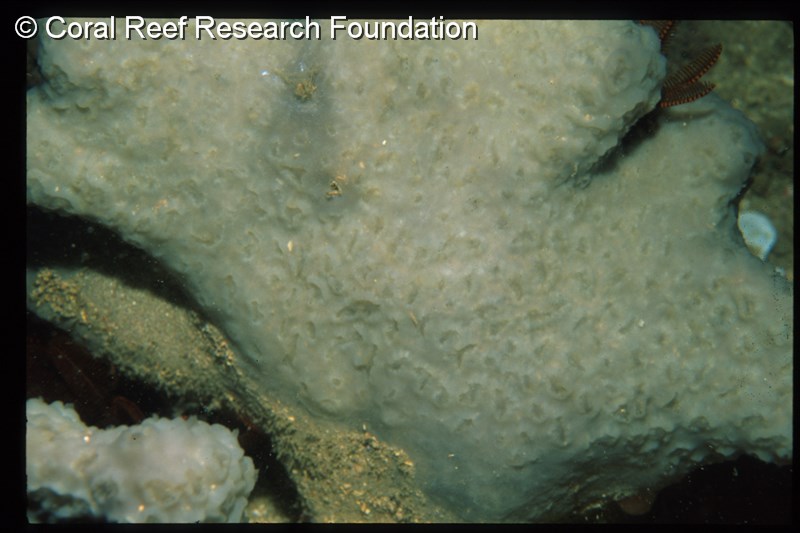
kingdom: Animalia
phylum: Chordata
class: Ascidiacea
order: Aplousobranchia
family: Polyclinidae
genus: Aplidium
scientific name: Aplidium
